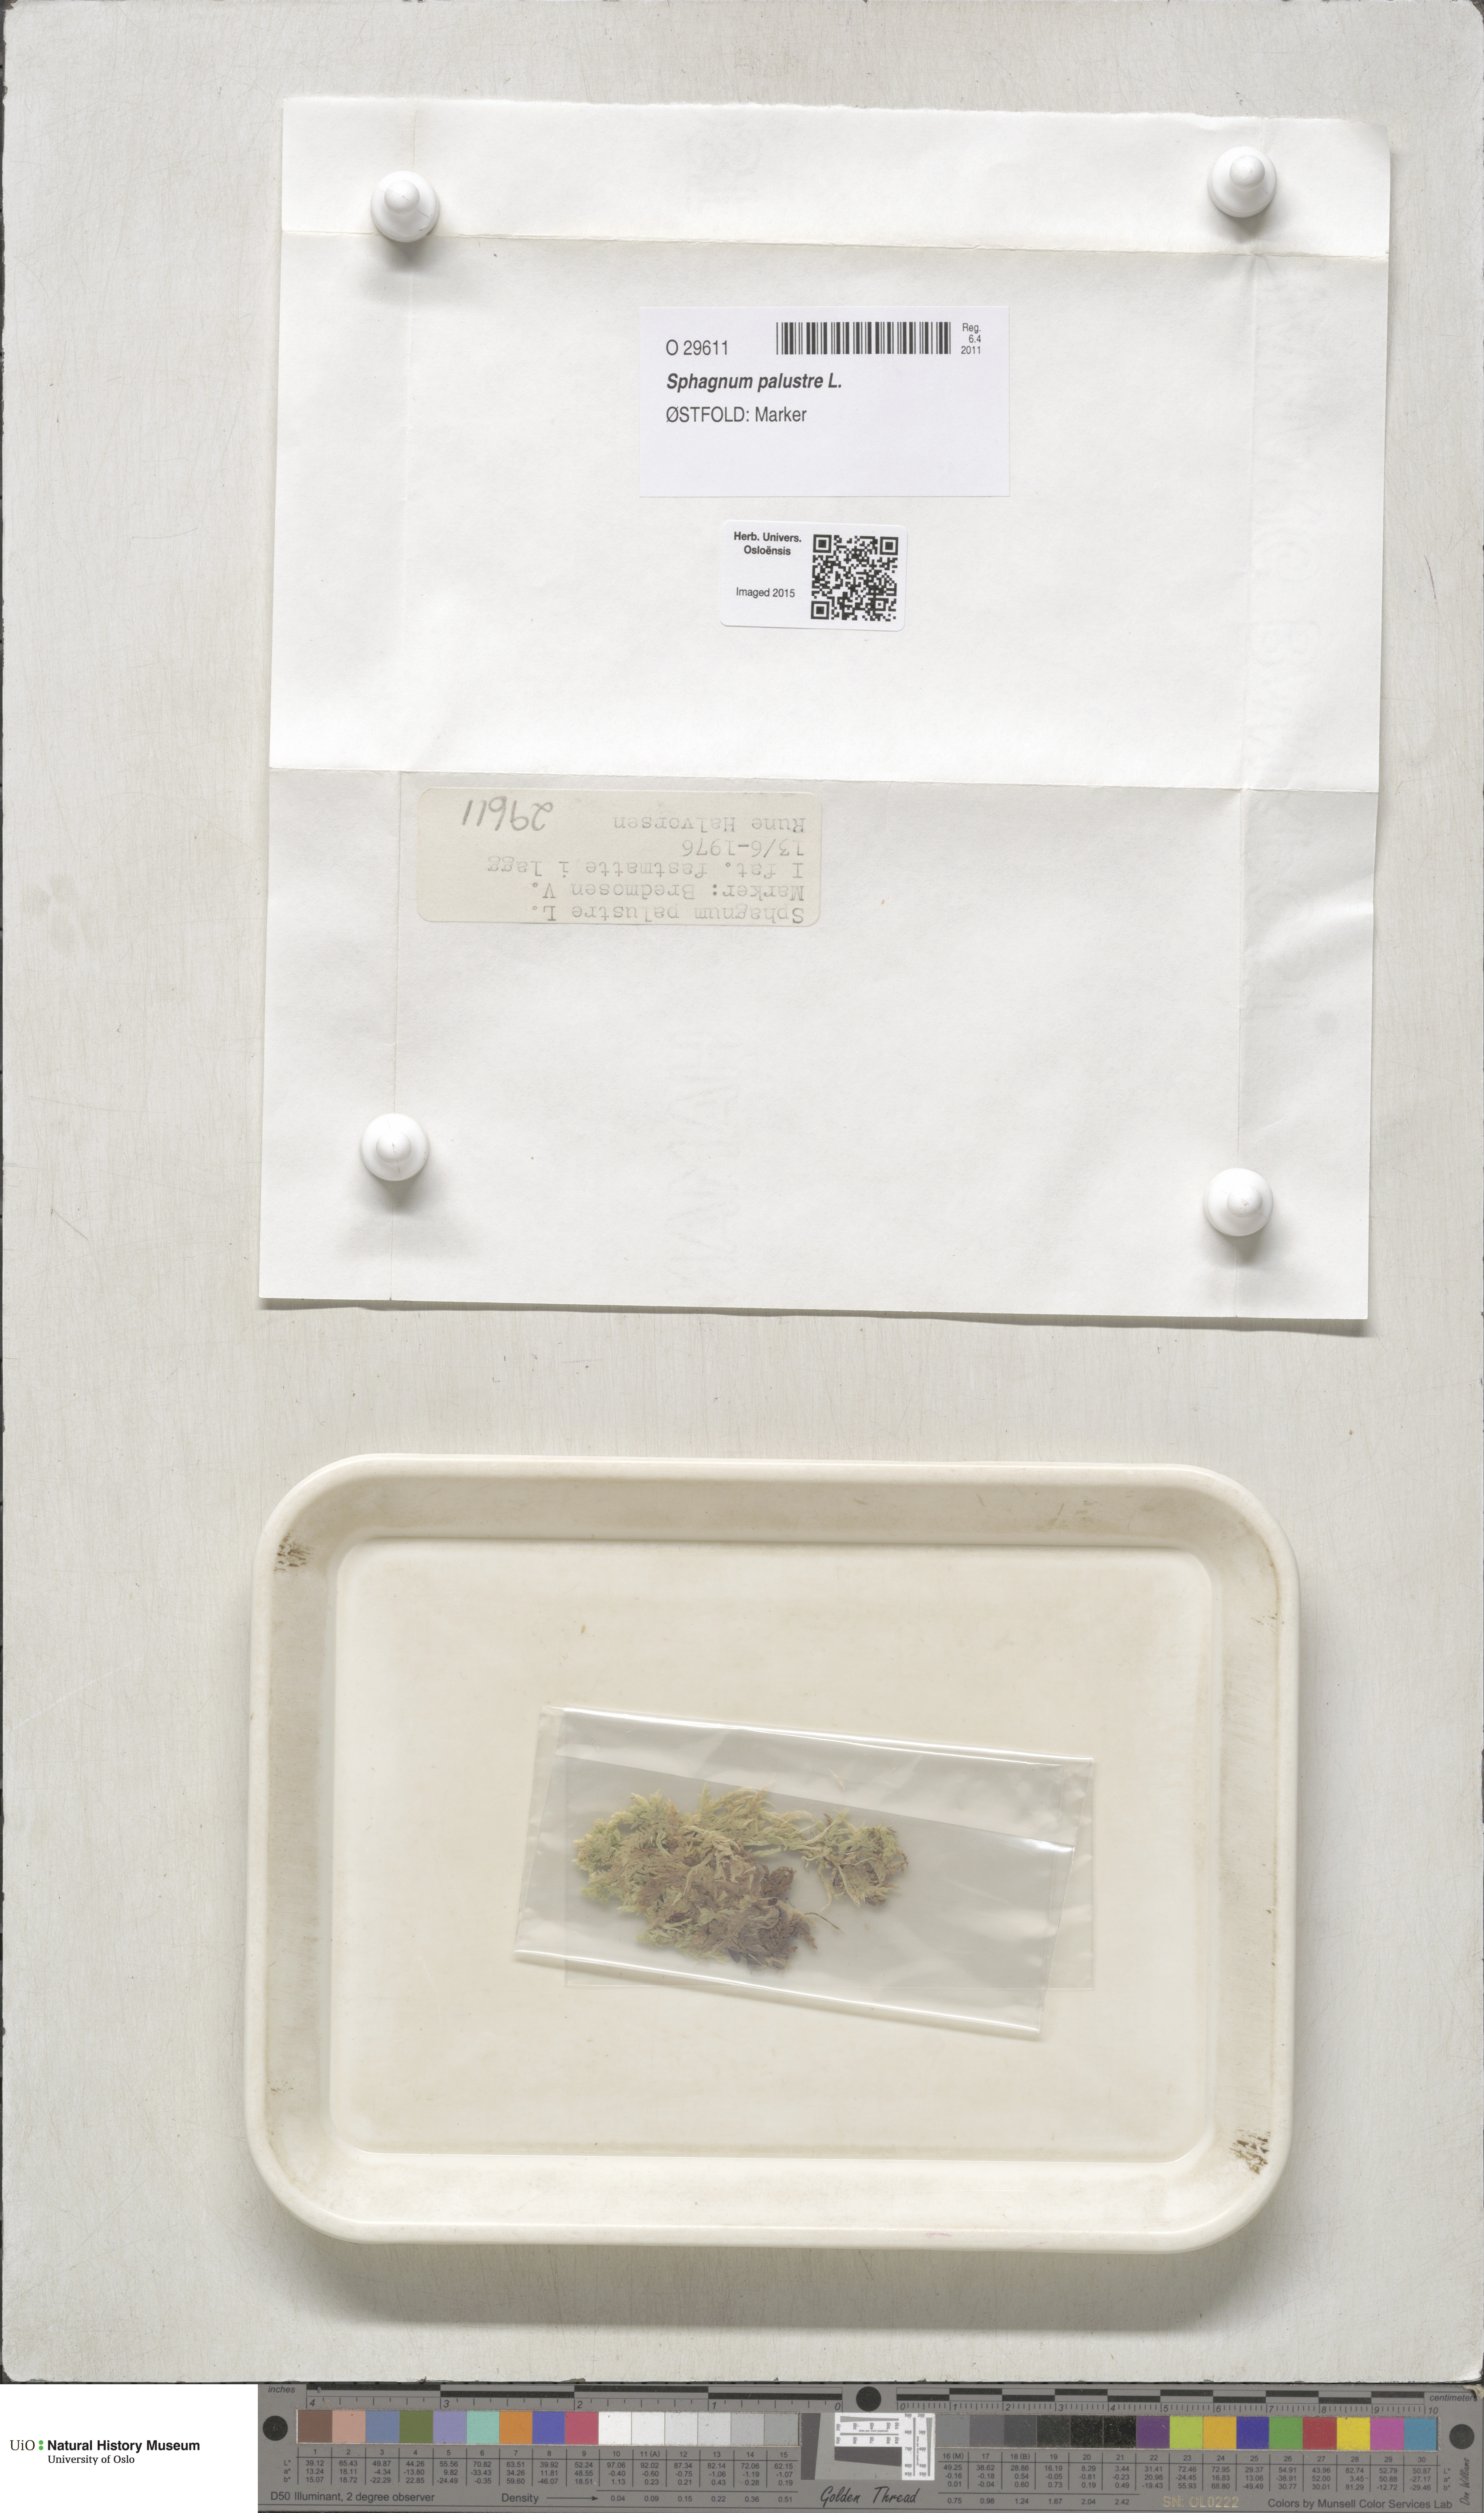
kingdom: Plantae
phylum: Bryophyta
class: Sphagnopsida
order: Sphagnales
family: Sphagnaceae
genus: Sphagnum
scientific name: Sphagnum palustre
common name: Blunt-leaved bog-moss
